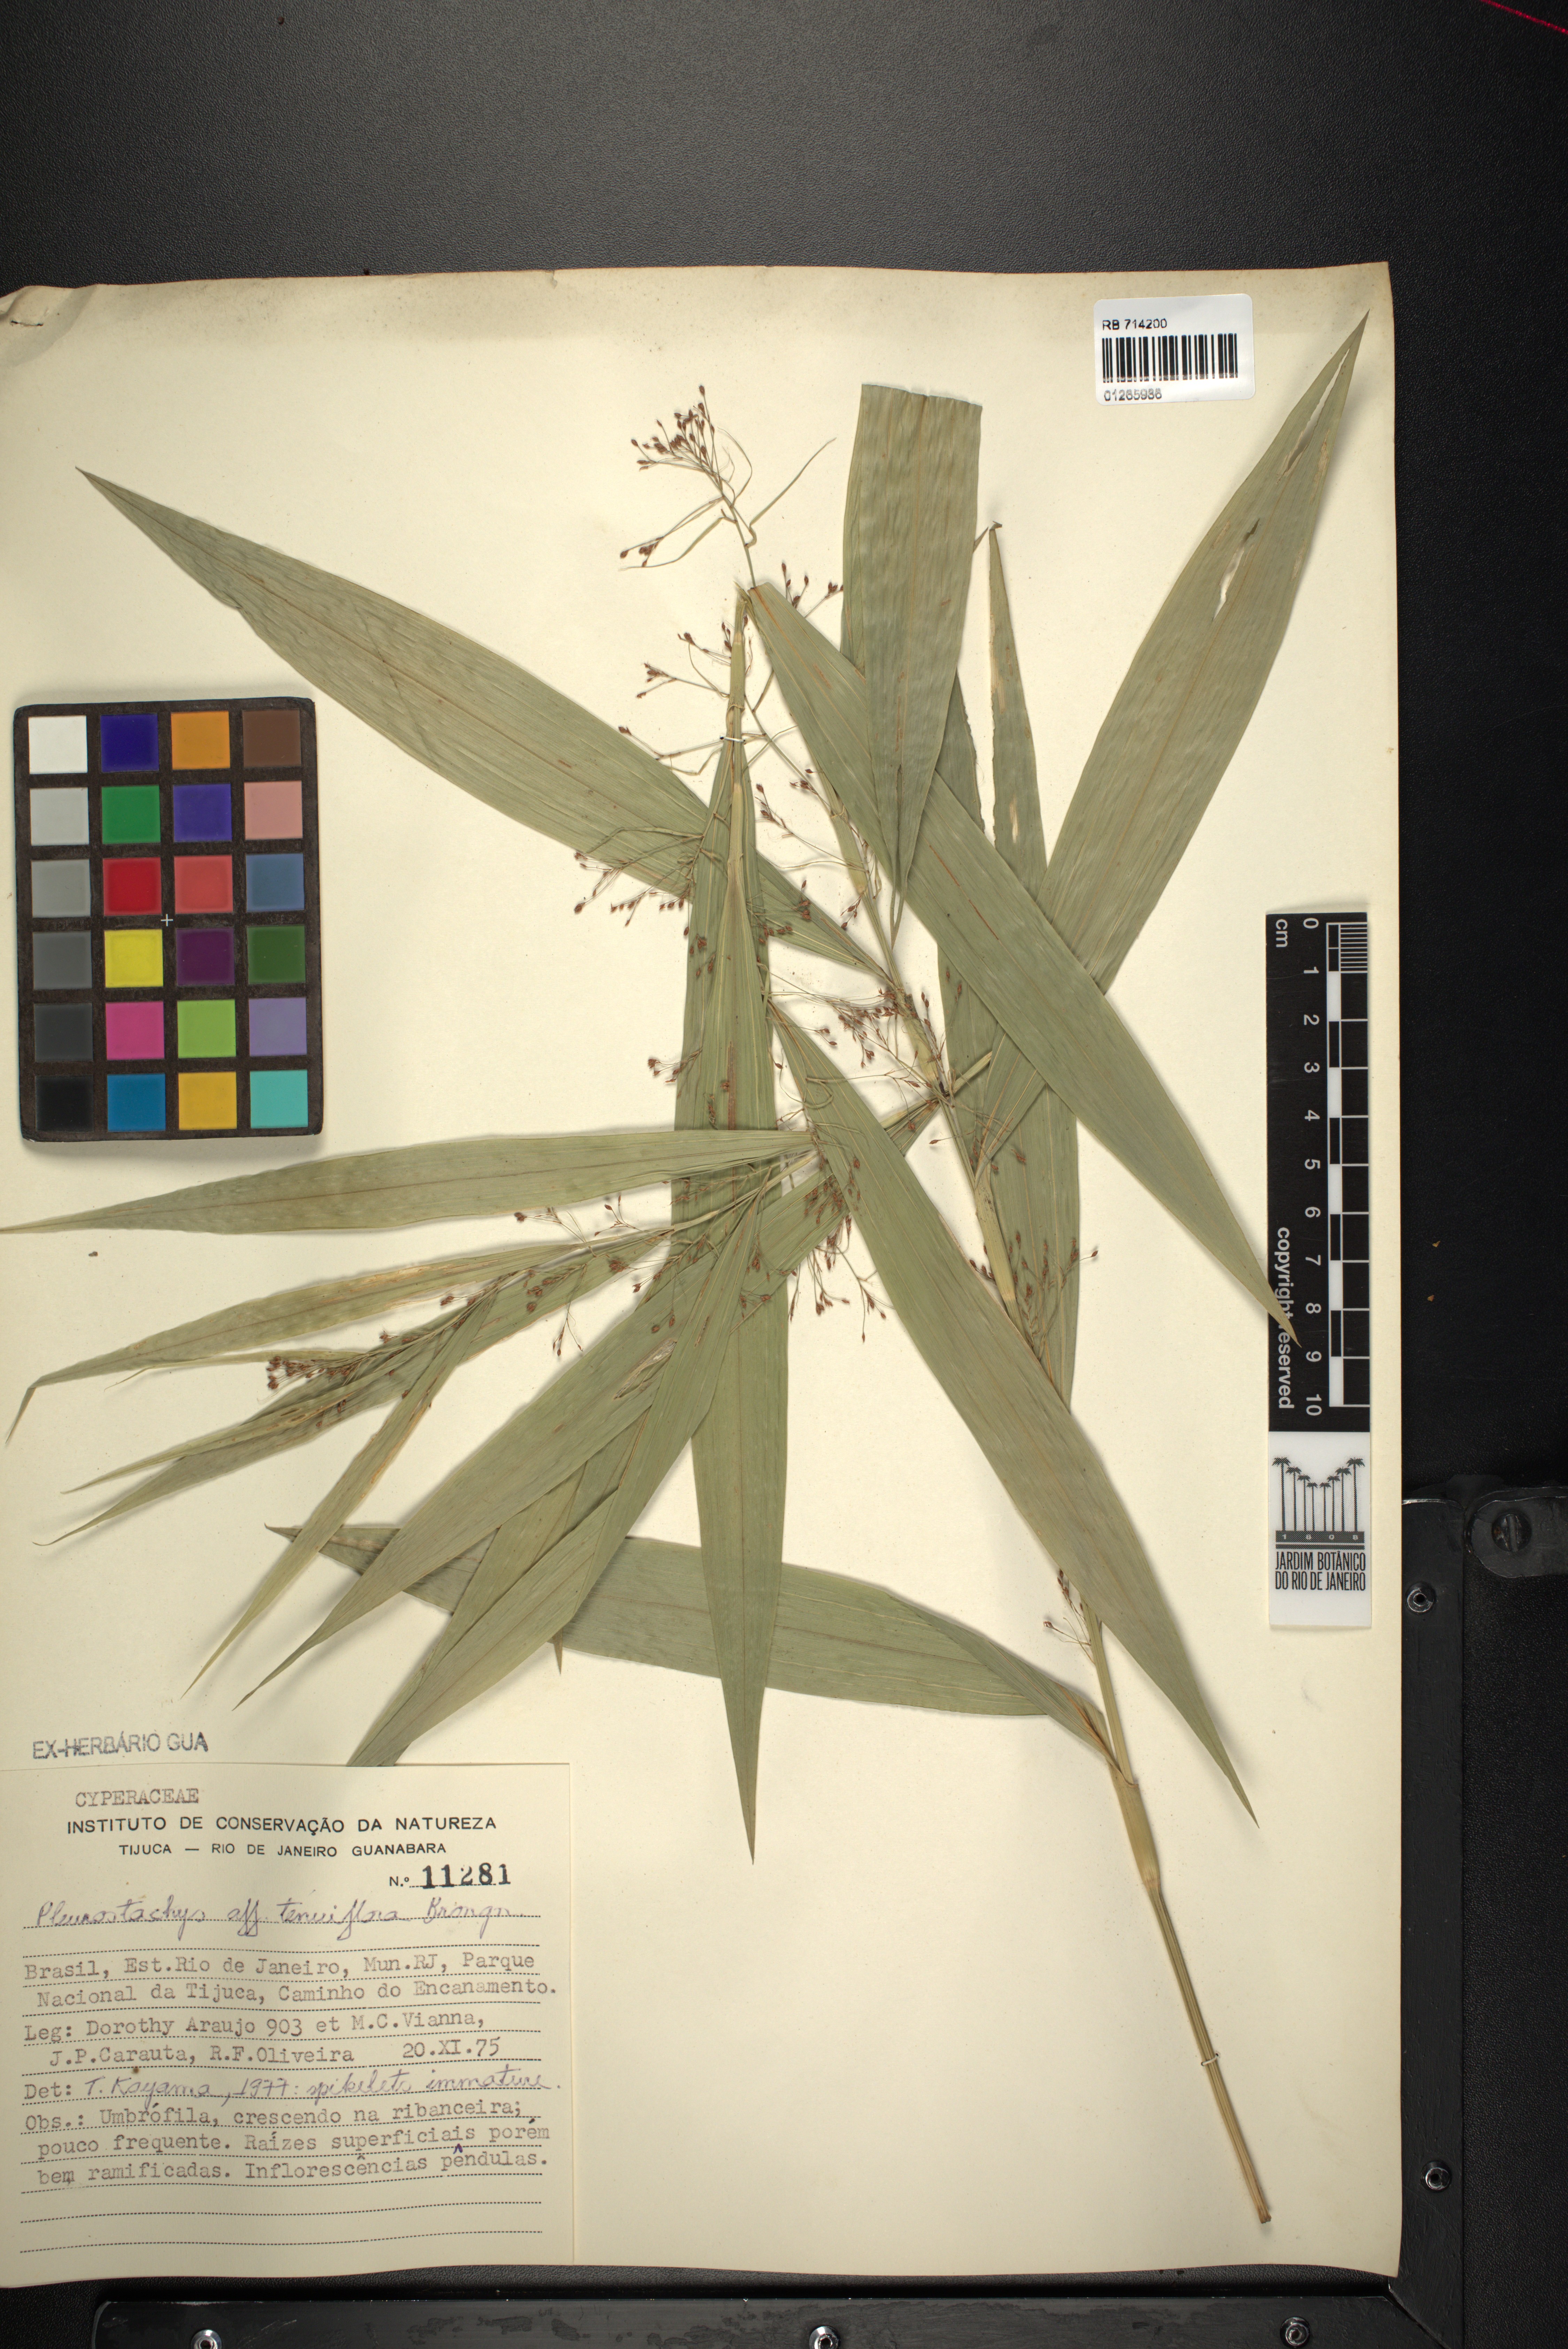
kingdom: Plantae
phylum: Tracheophyta
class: Liliopsida
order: Poales
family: Cyperaceae
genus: Rhynchospora
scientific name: Rhynchospora tenuiflora
